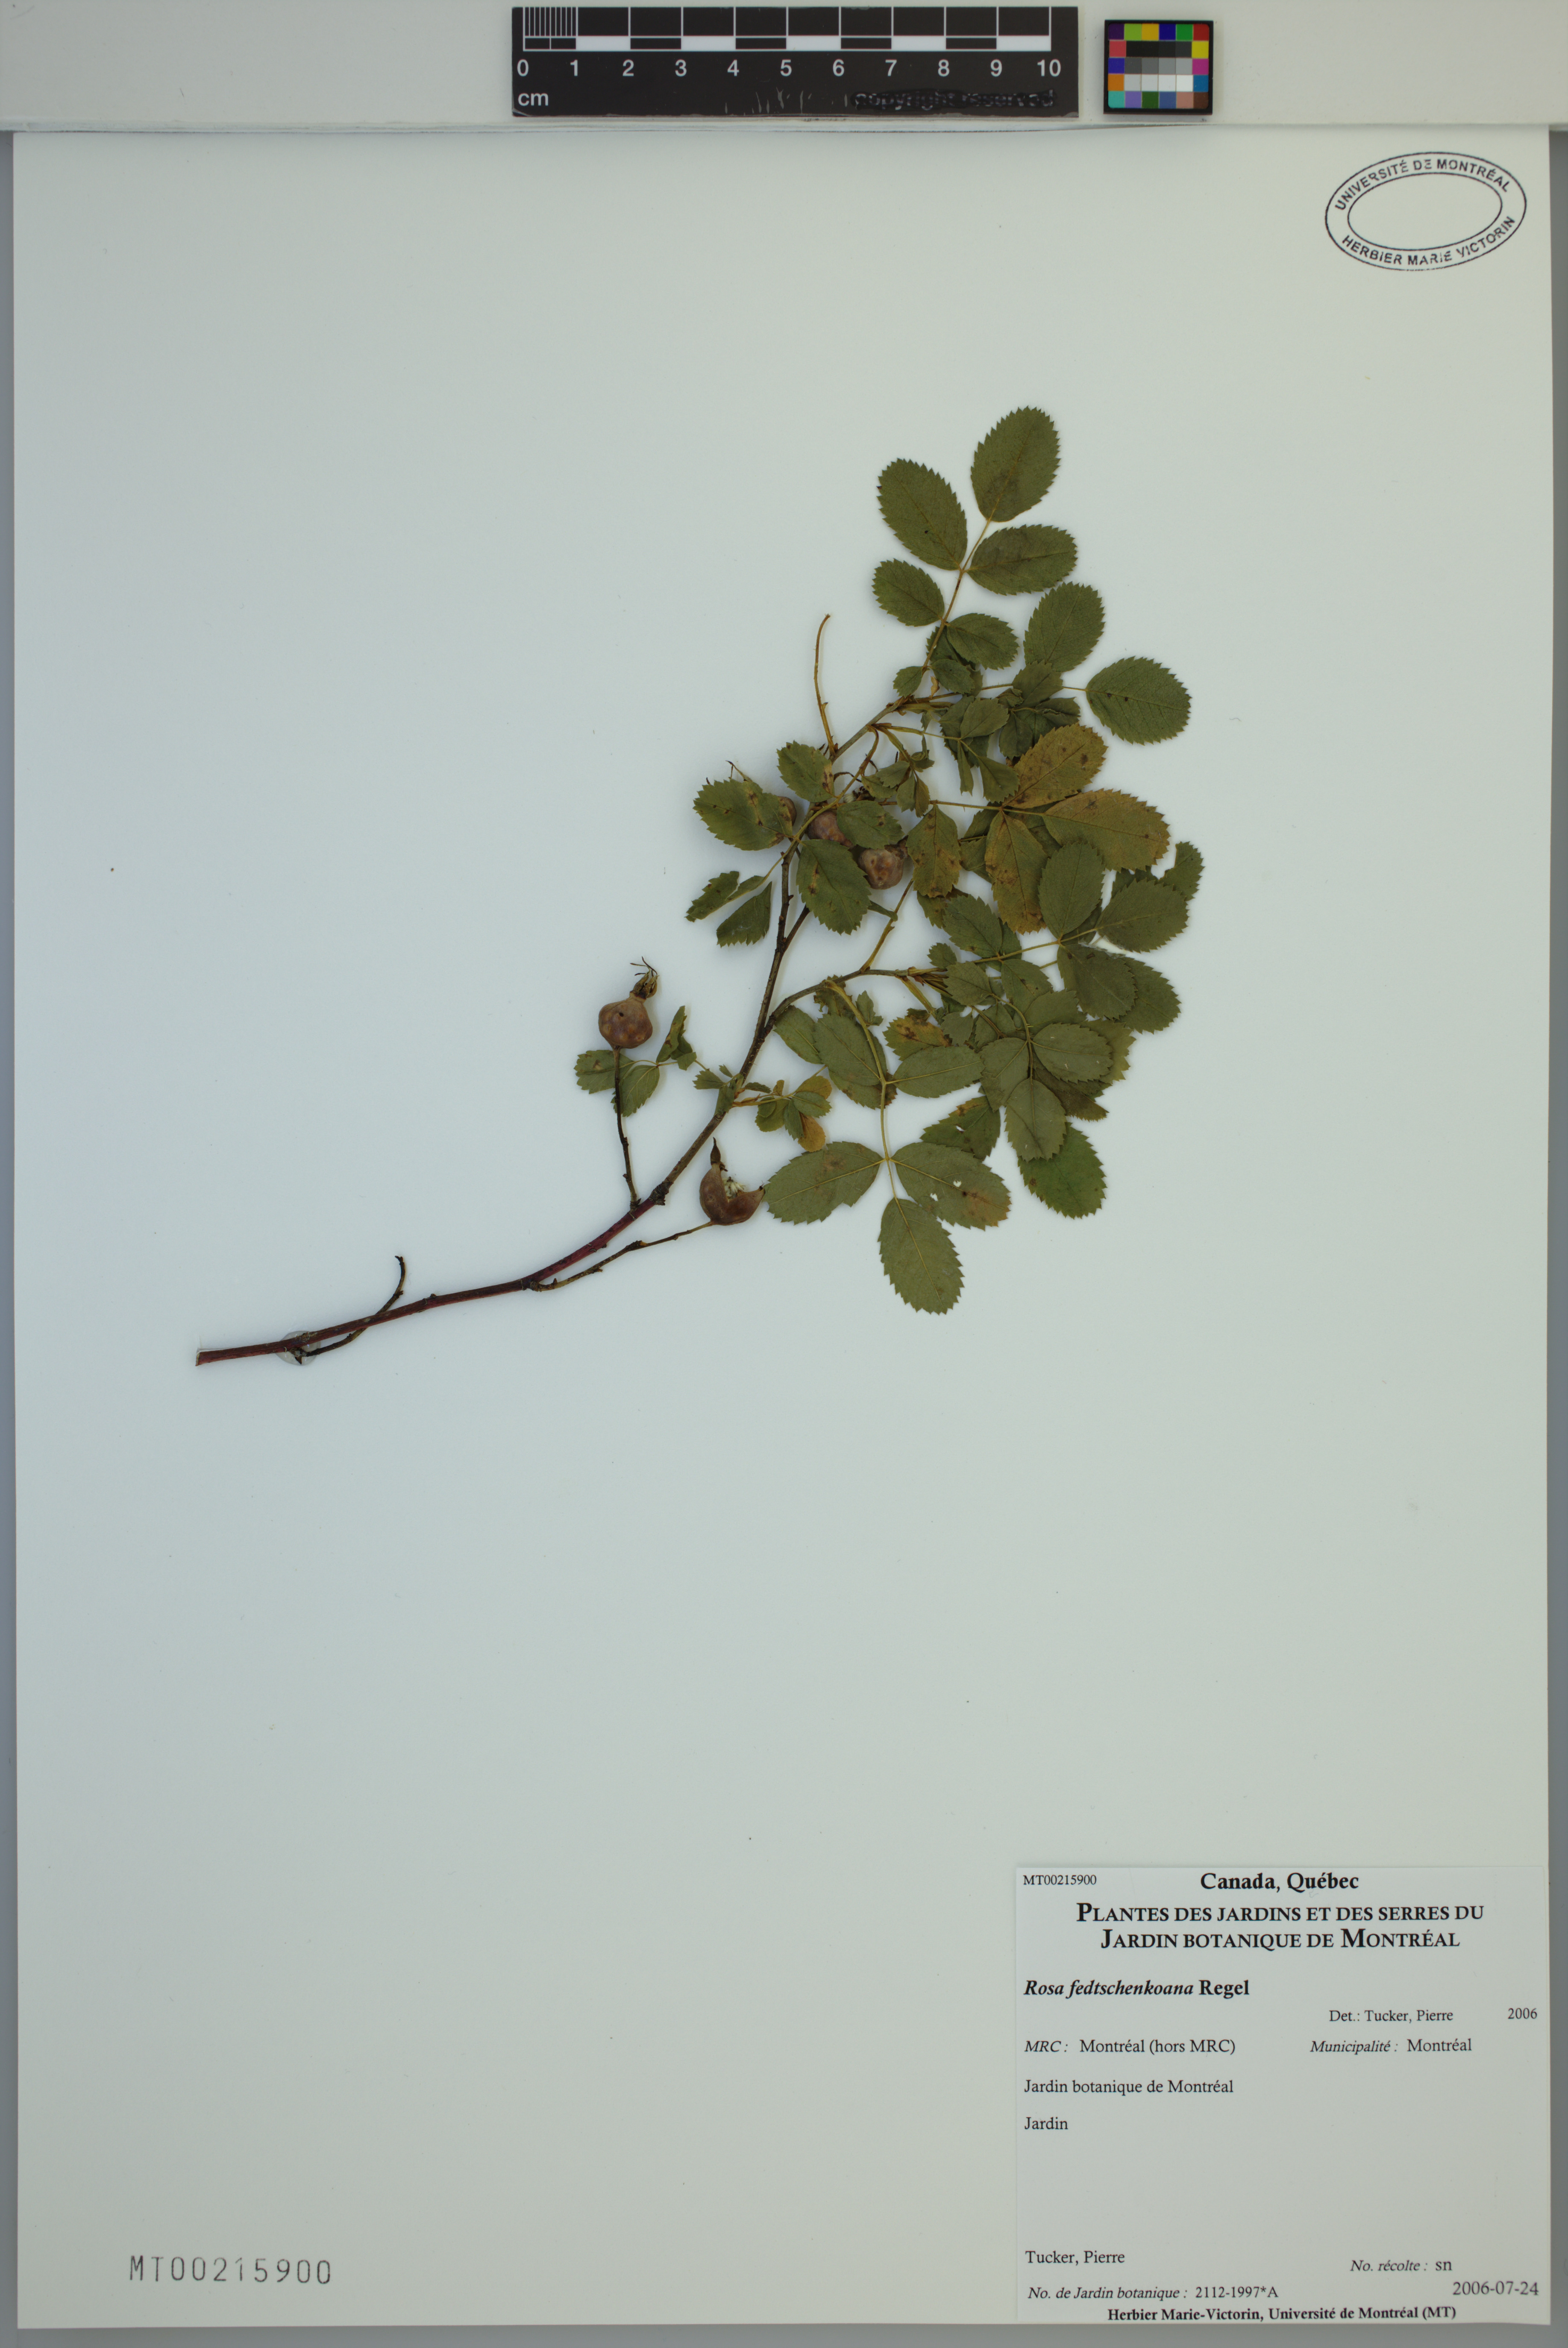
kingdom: Plantae
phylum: Tracheophyta
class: Magnoliopsida
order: Rosales
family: Rosaceae
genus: Rosa
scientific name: Rosa webbiana
